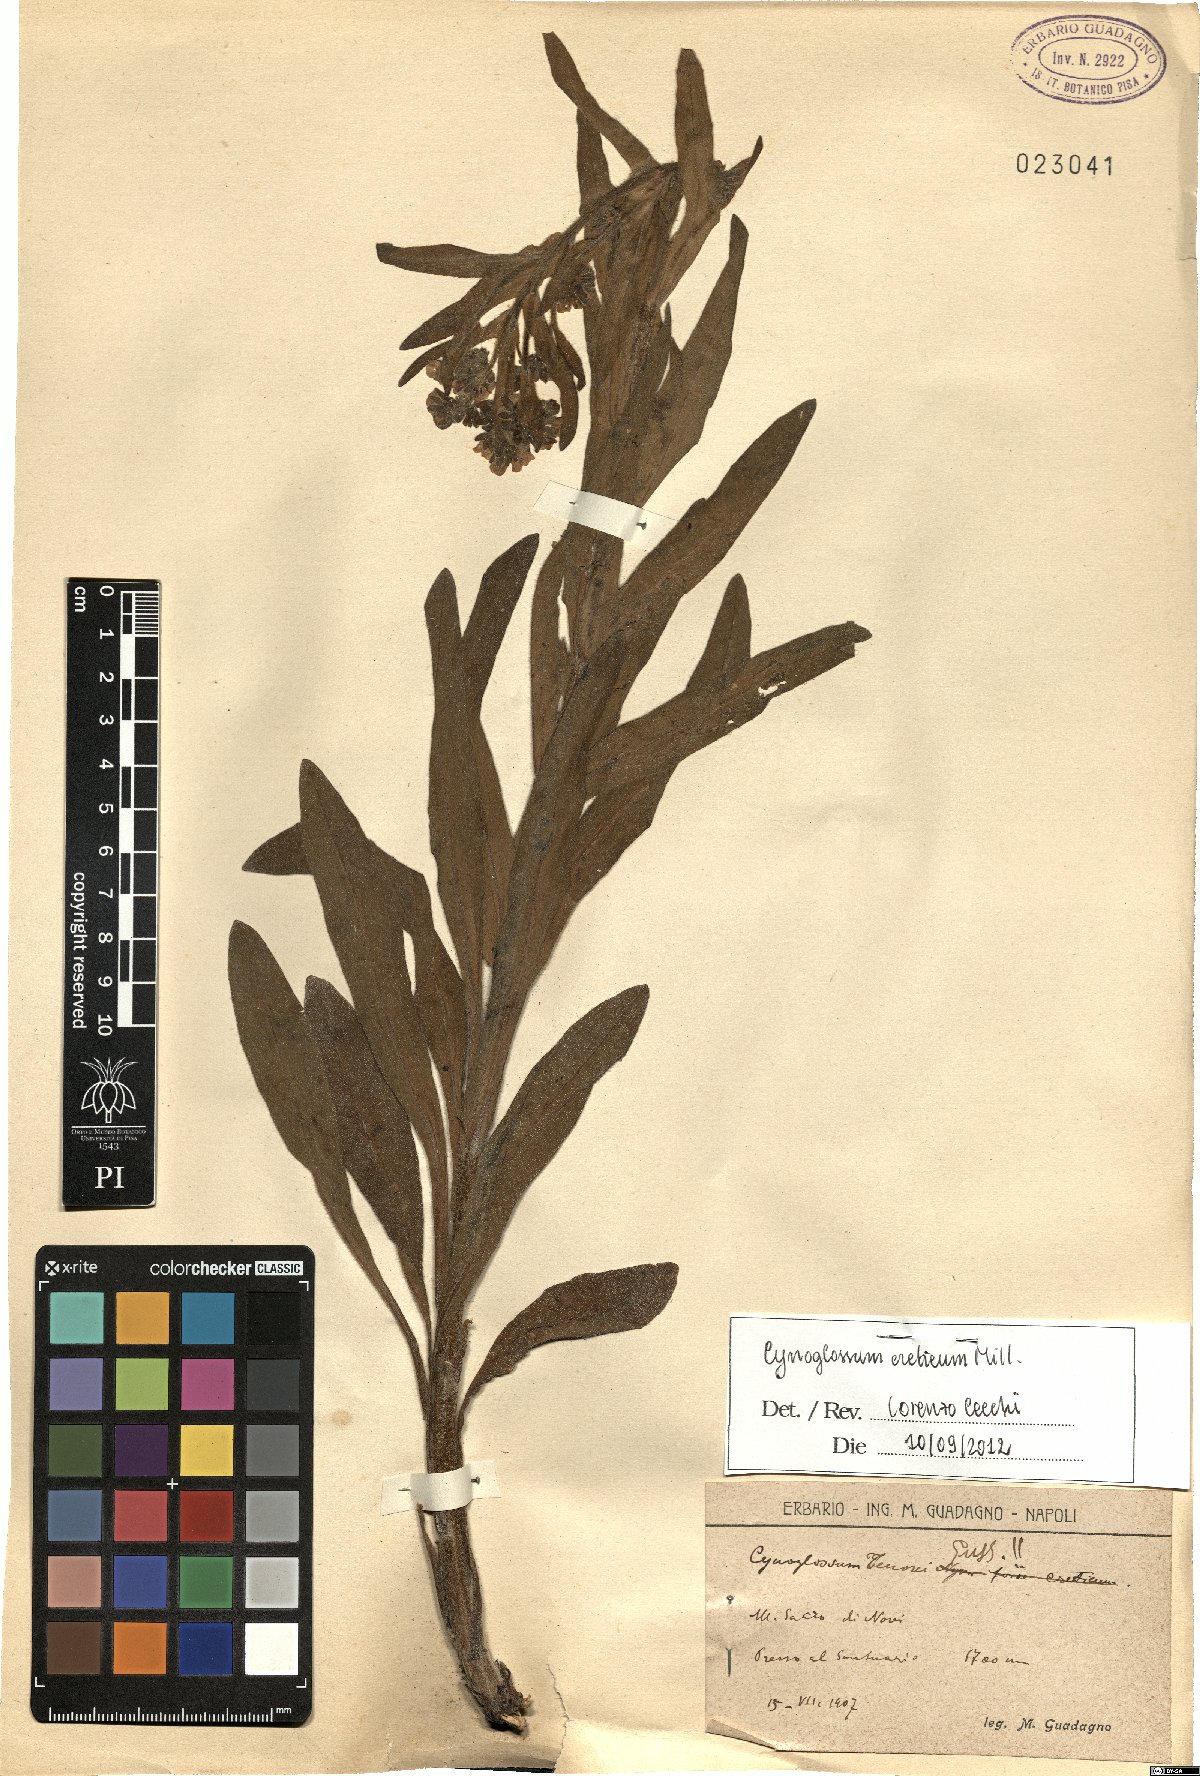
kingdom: Plantae
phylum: Tracheophyta
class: Magnoliopsida
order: Boraginales
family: Boraginaceae
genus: Cynoglossum
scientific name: Cynoglossum creticum
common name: Blue hound's tongue
